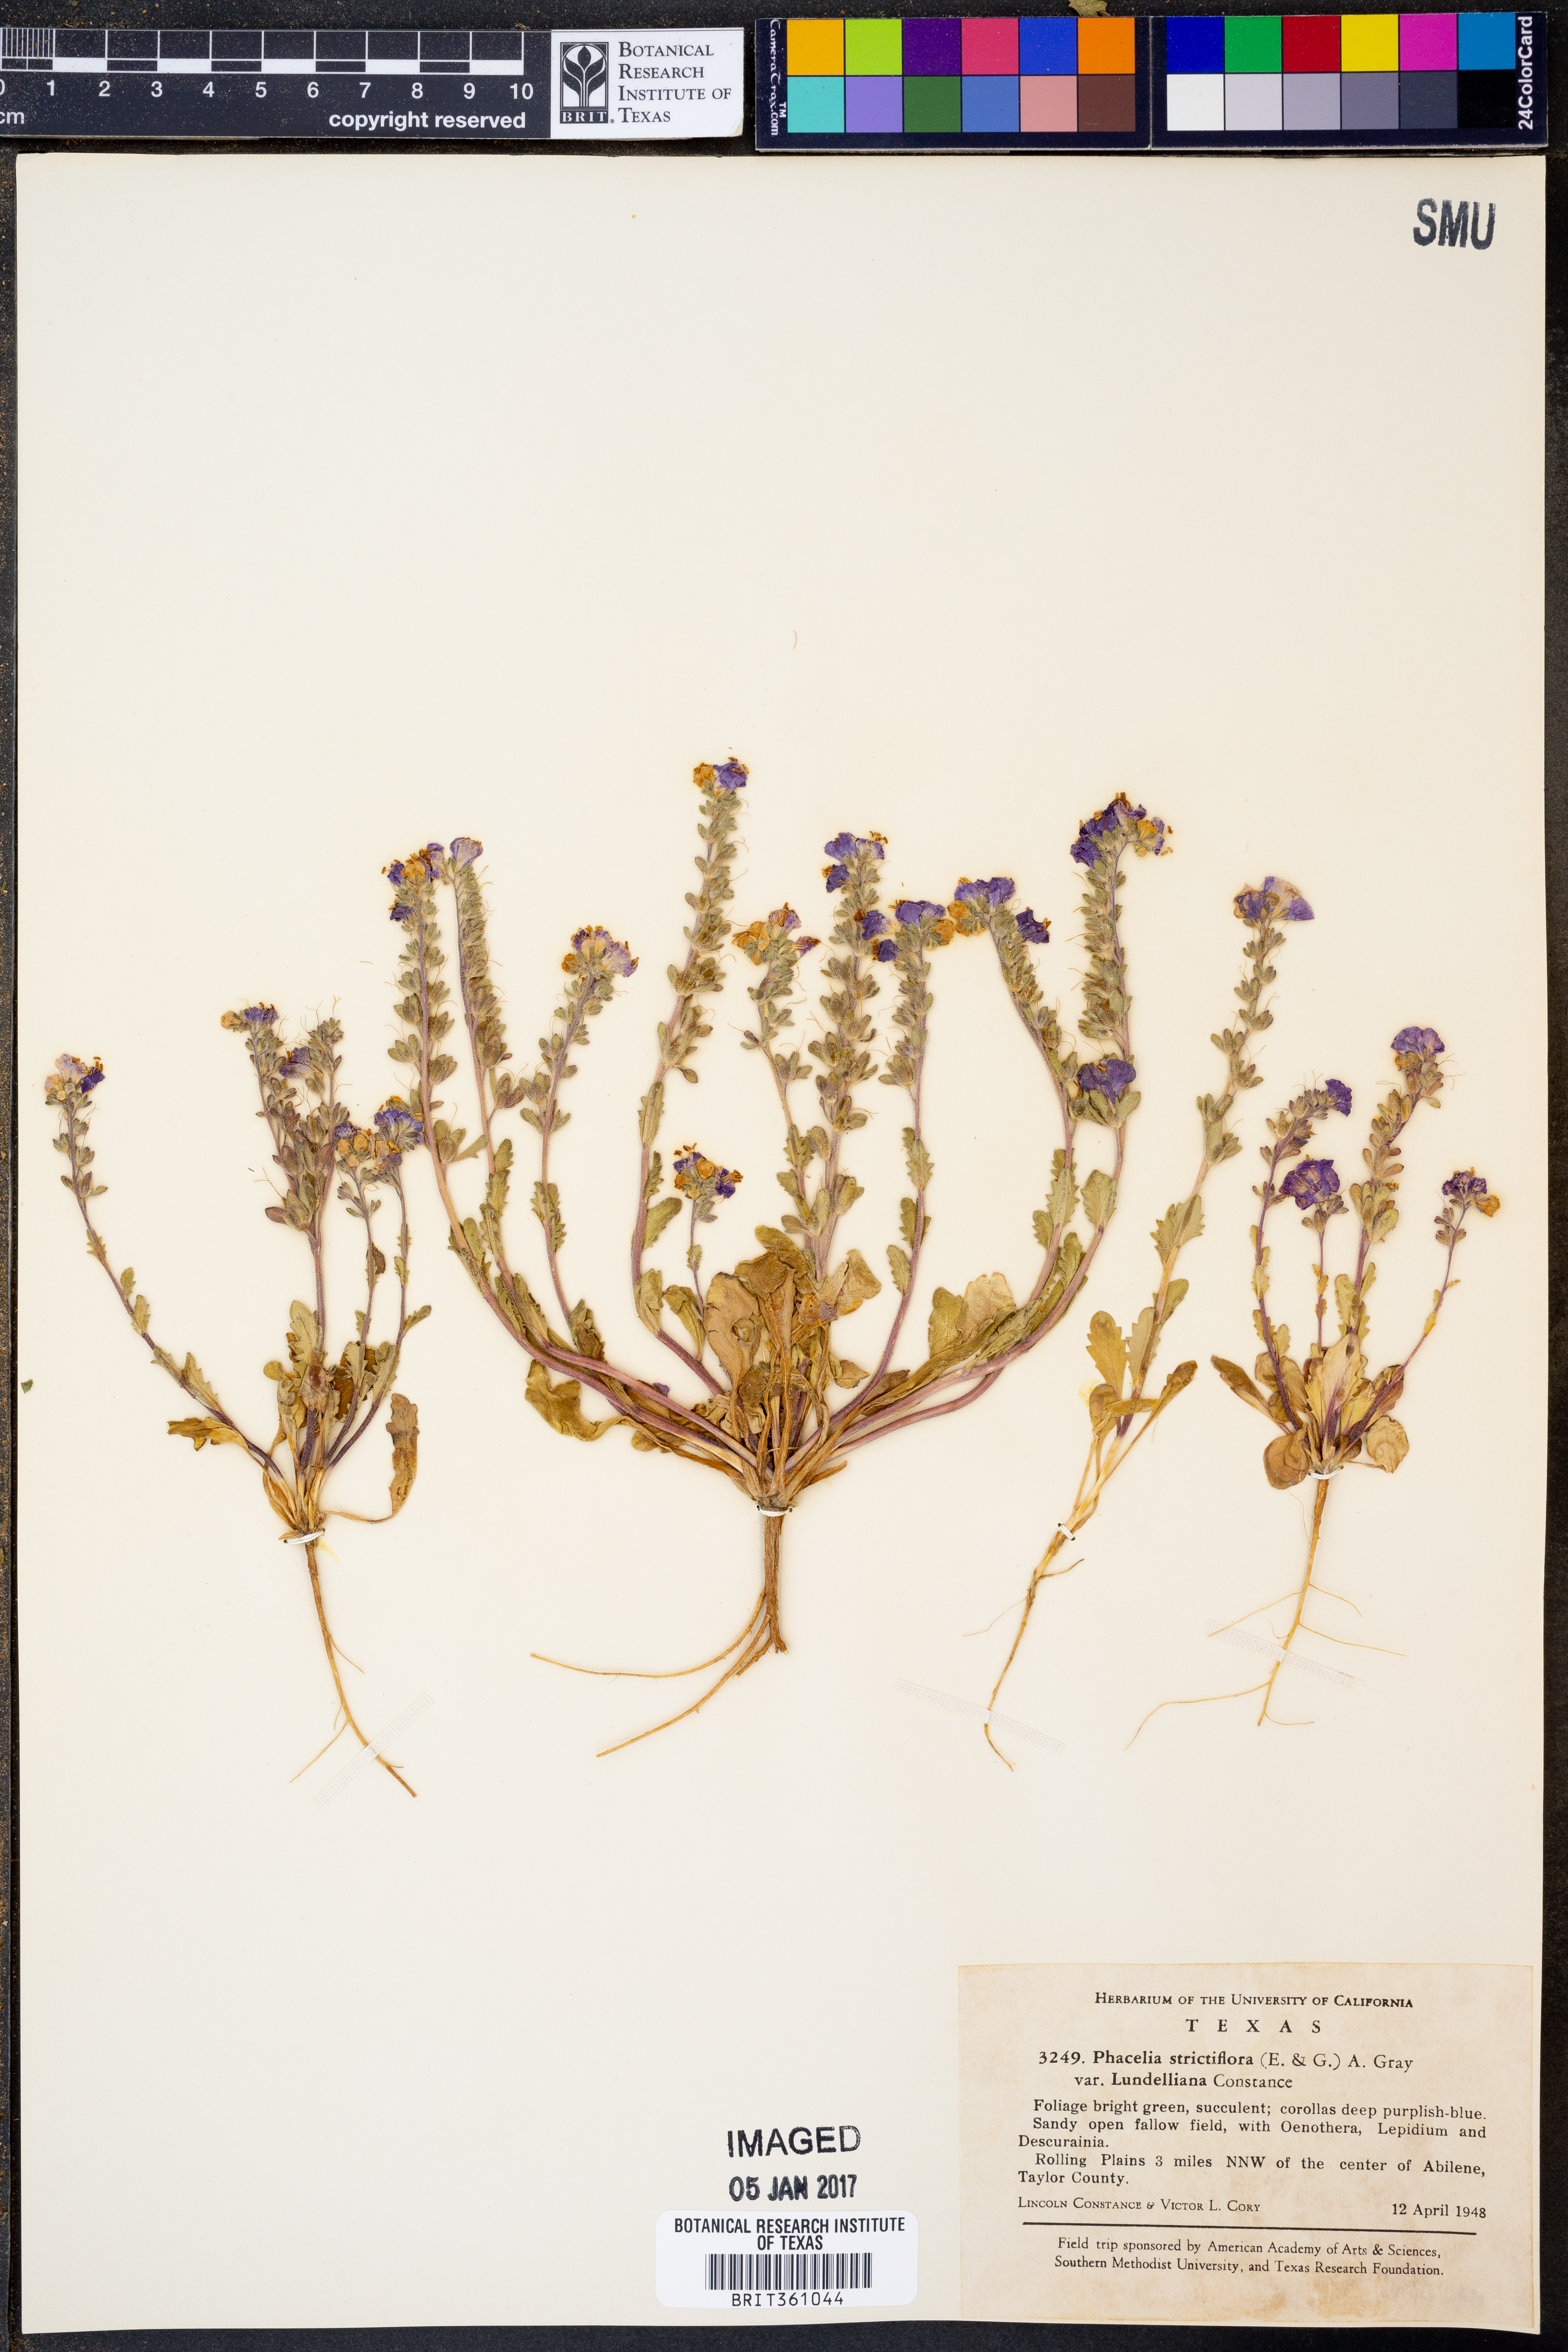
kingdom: Plantae
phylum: Tracheophyta
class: Magnoliopsida
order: Boraginales
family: Hydrophyllaceae
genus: Phacelia
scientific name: Phacelia strictiflora
